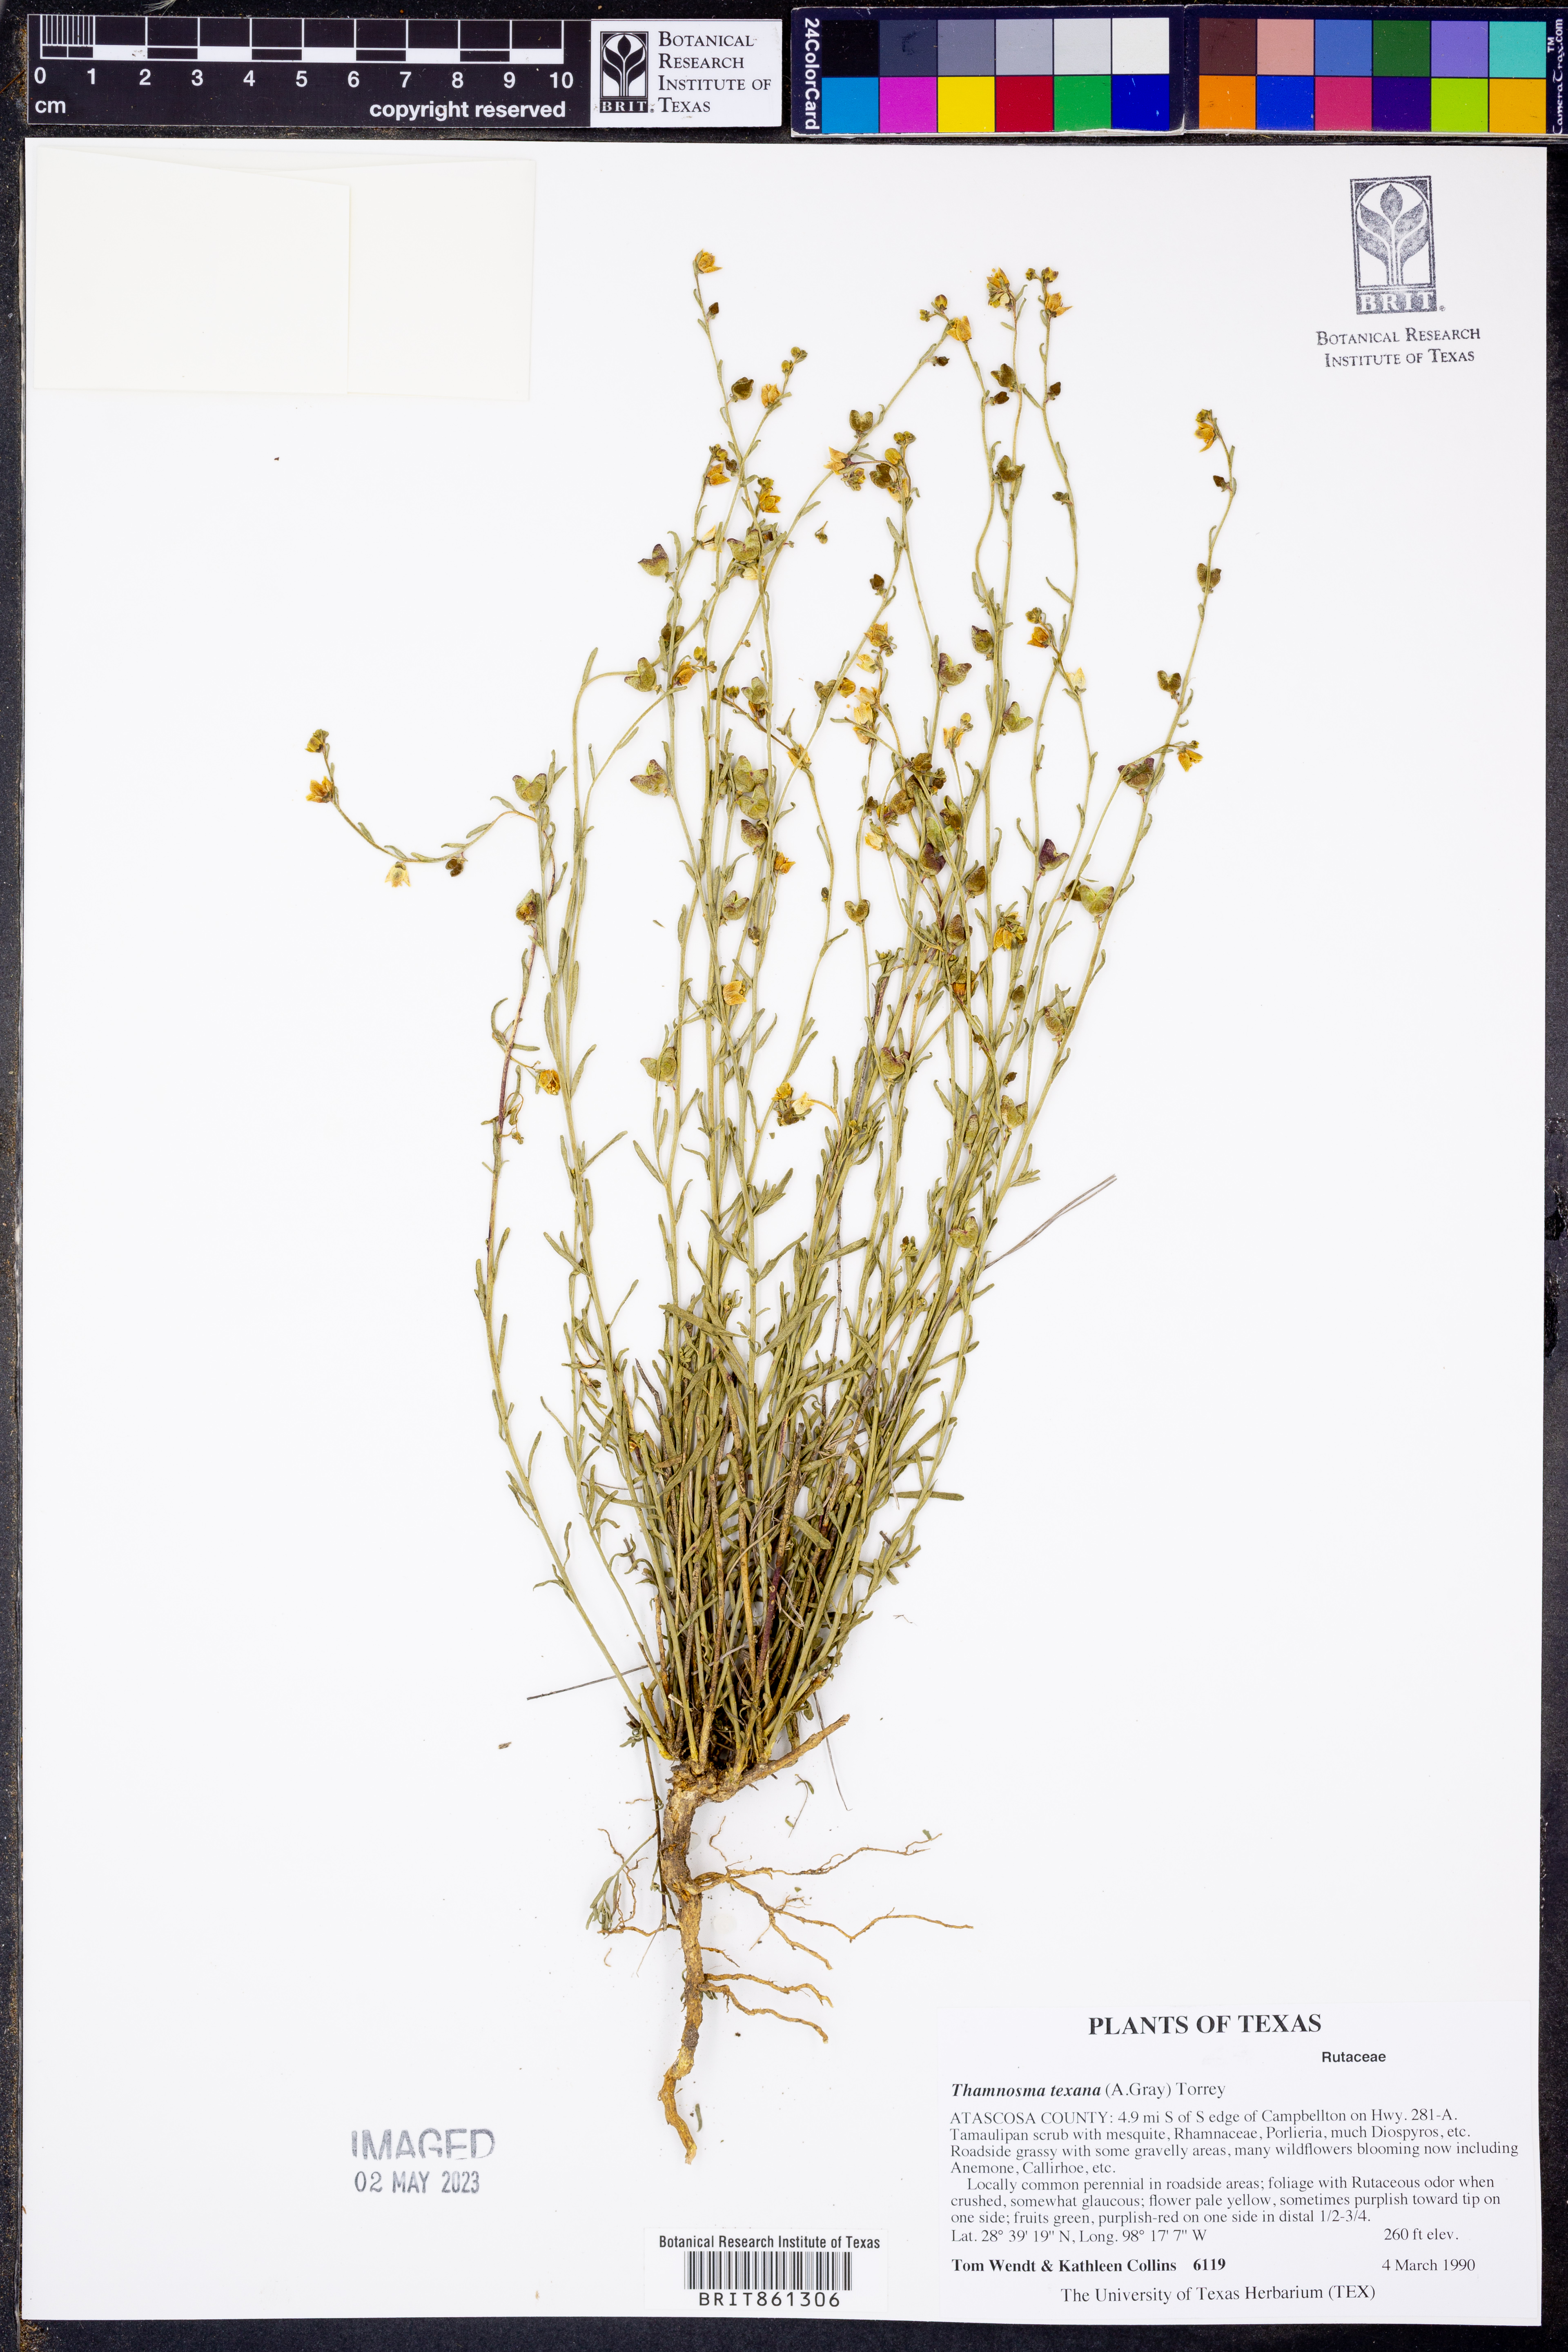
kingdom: Plantae
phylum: Tracheophyta
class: Magnoliopsida
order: Sapindales
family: Rutaceae
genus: Thamnosma
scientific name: Thamnosma texana
